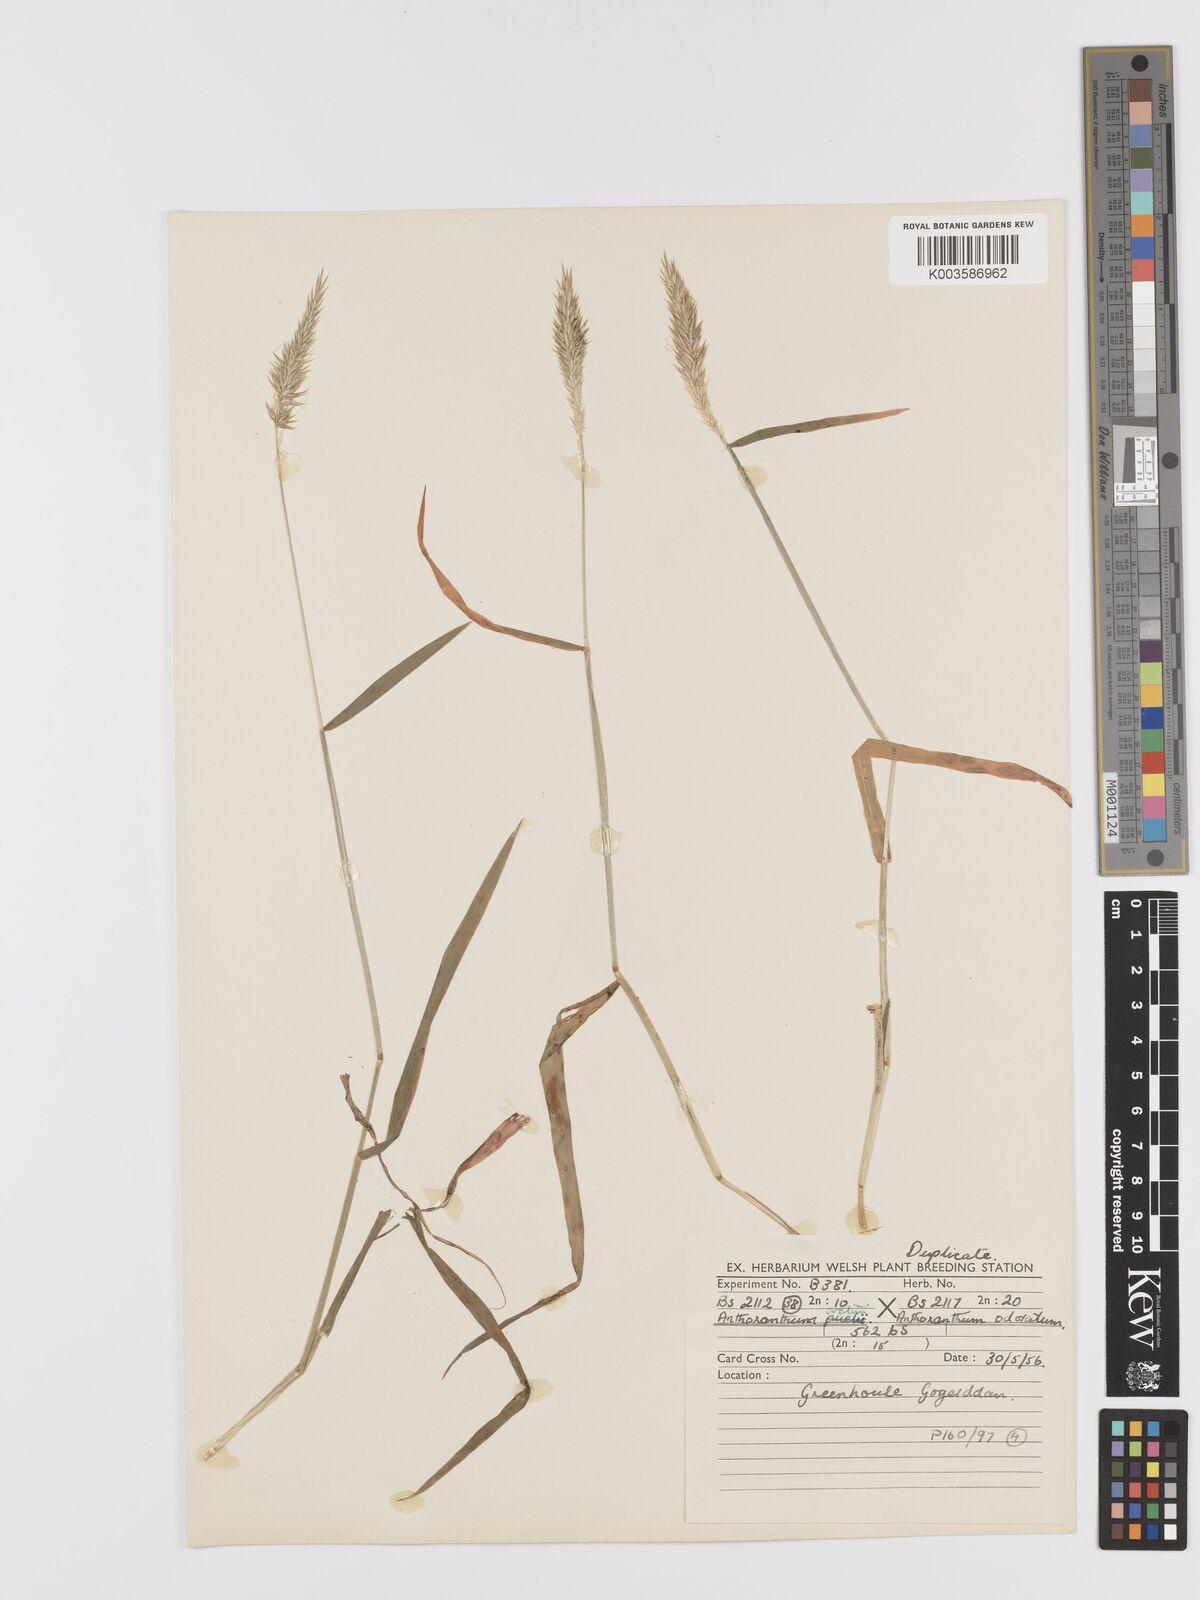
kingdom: Plantae
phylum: Tracheophyta
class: Liliopsida
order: Poales
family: Poaceae
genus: Anthoxanthum
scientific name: Anthoxanthum odoratum
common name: Sweet vernalgrass
